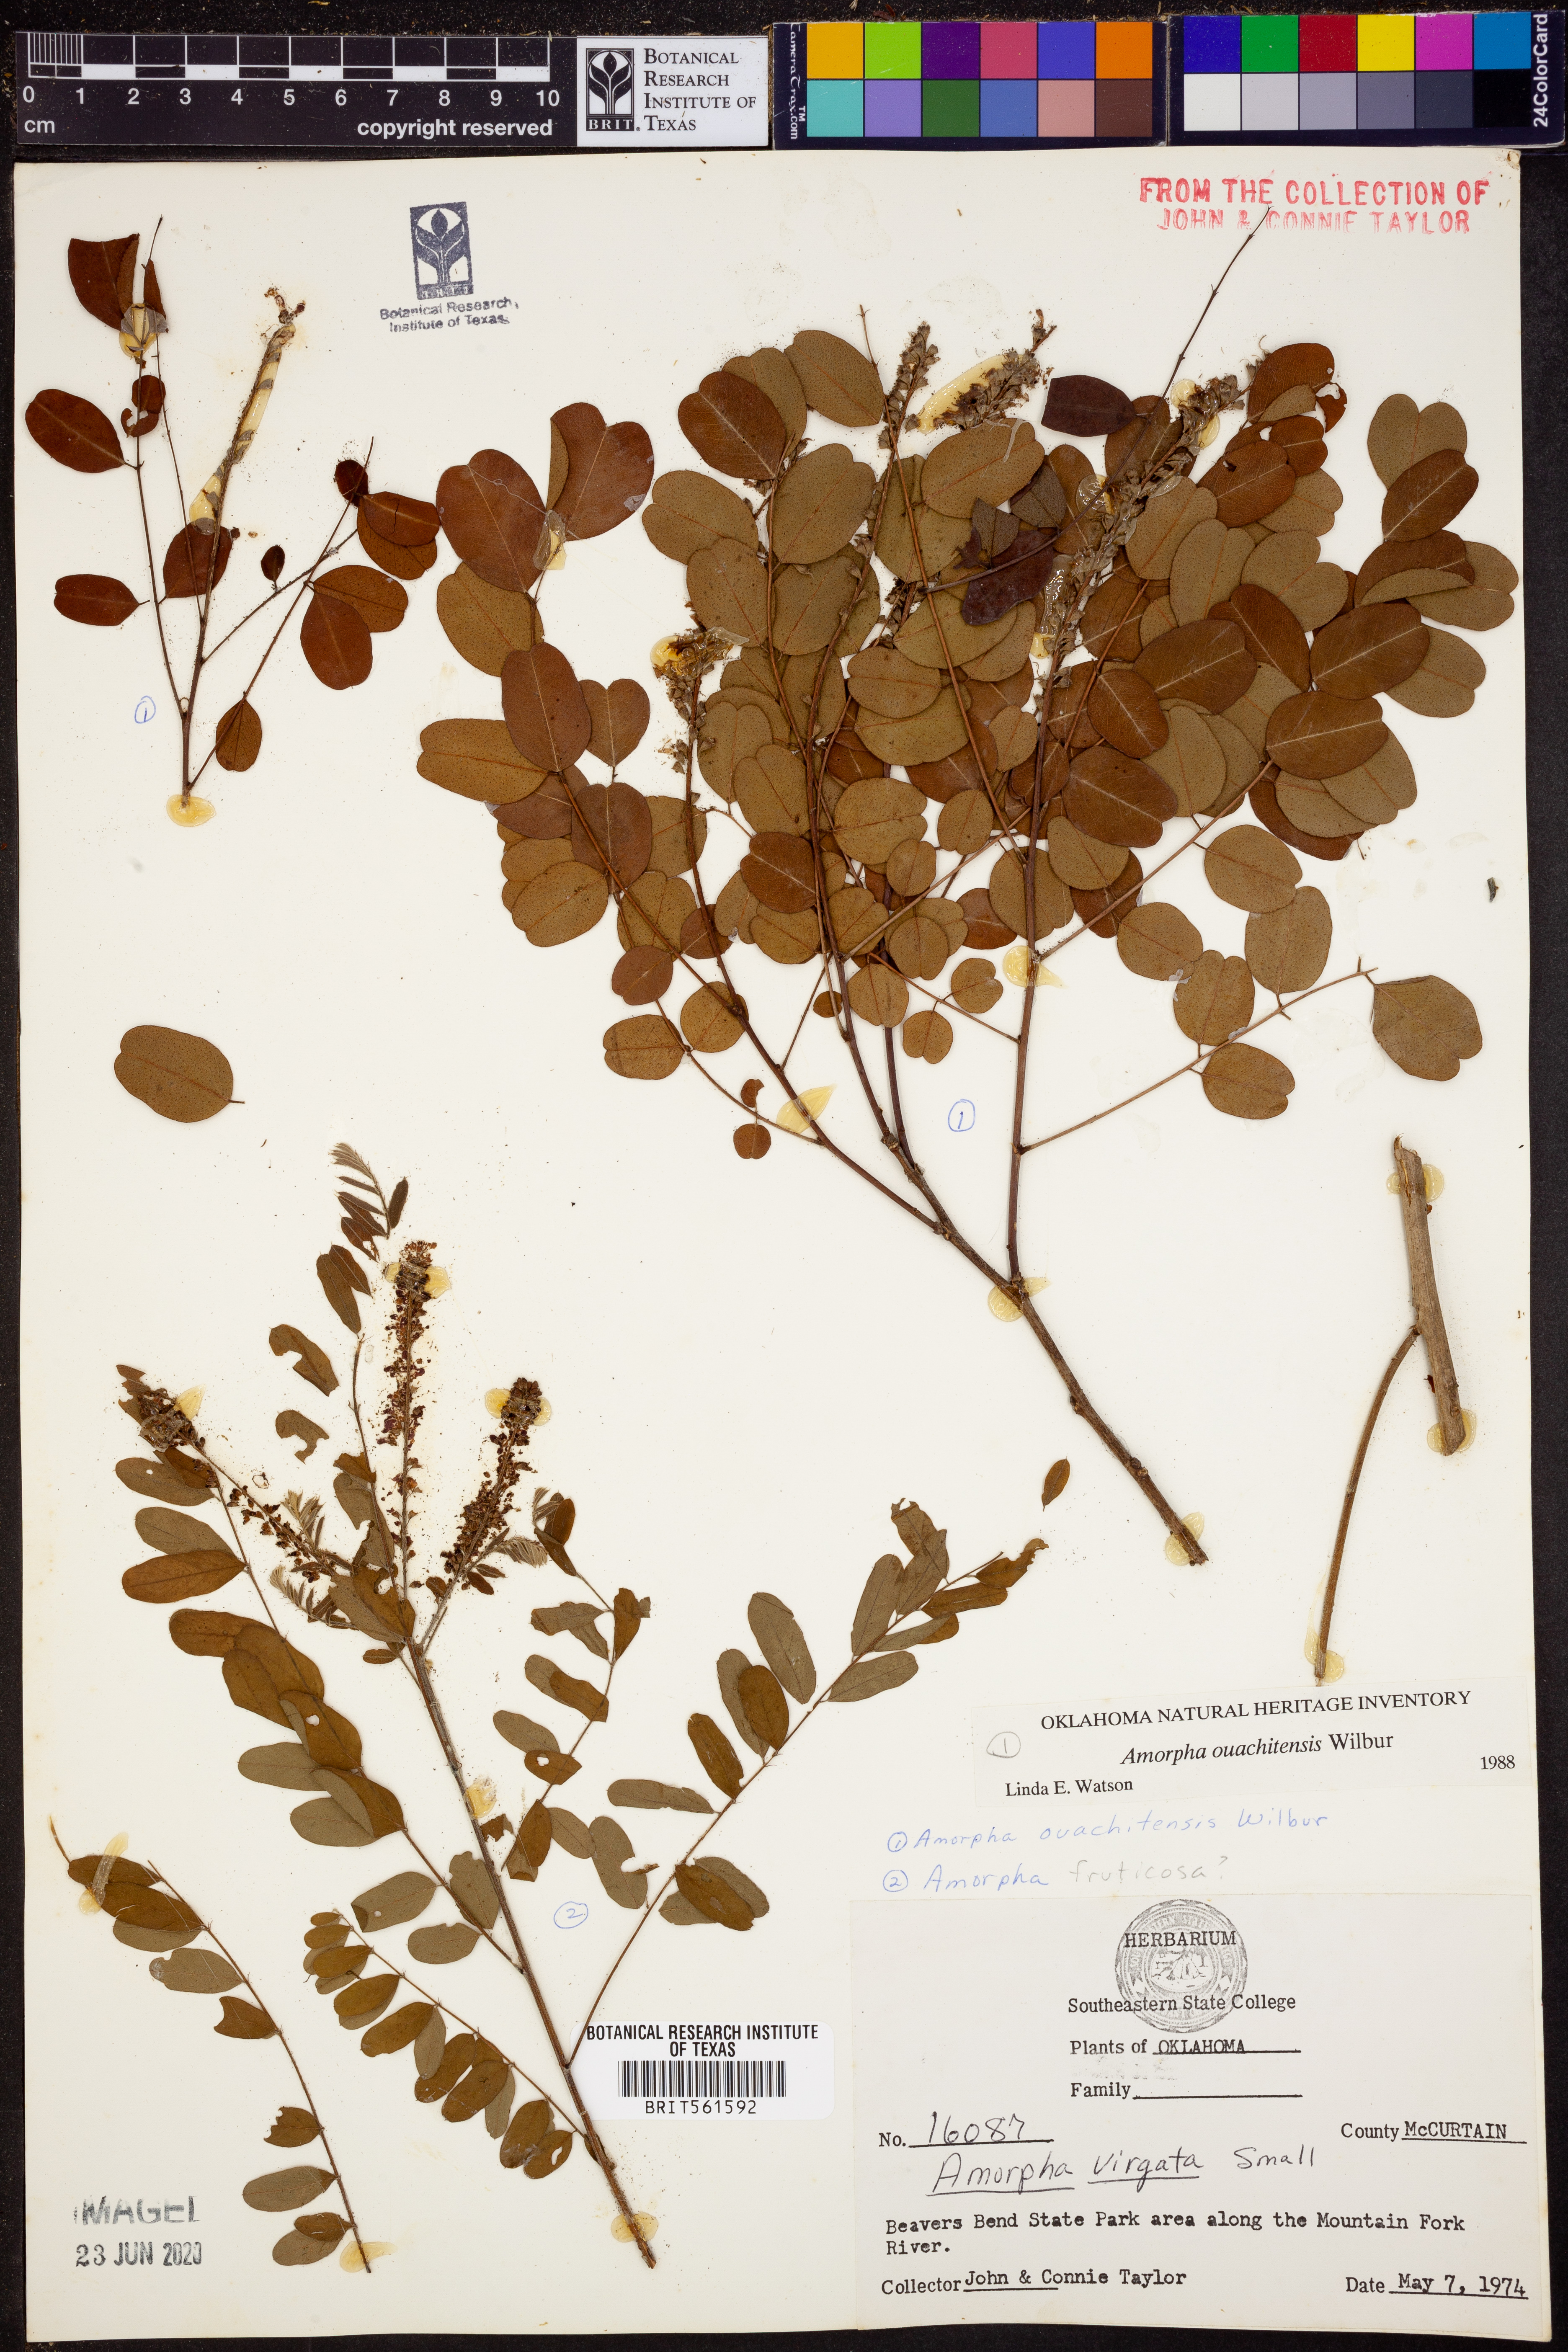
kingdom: Plantae
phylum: Tracheophyta
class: Magnoliopsida
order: Fabales
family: Fabaceae
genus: Amorpha
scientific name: Amorpha ouachitensis
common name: Ouachita false indigo
